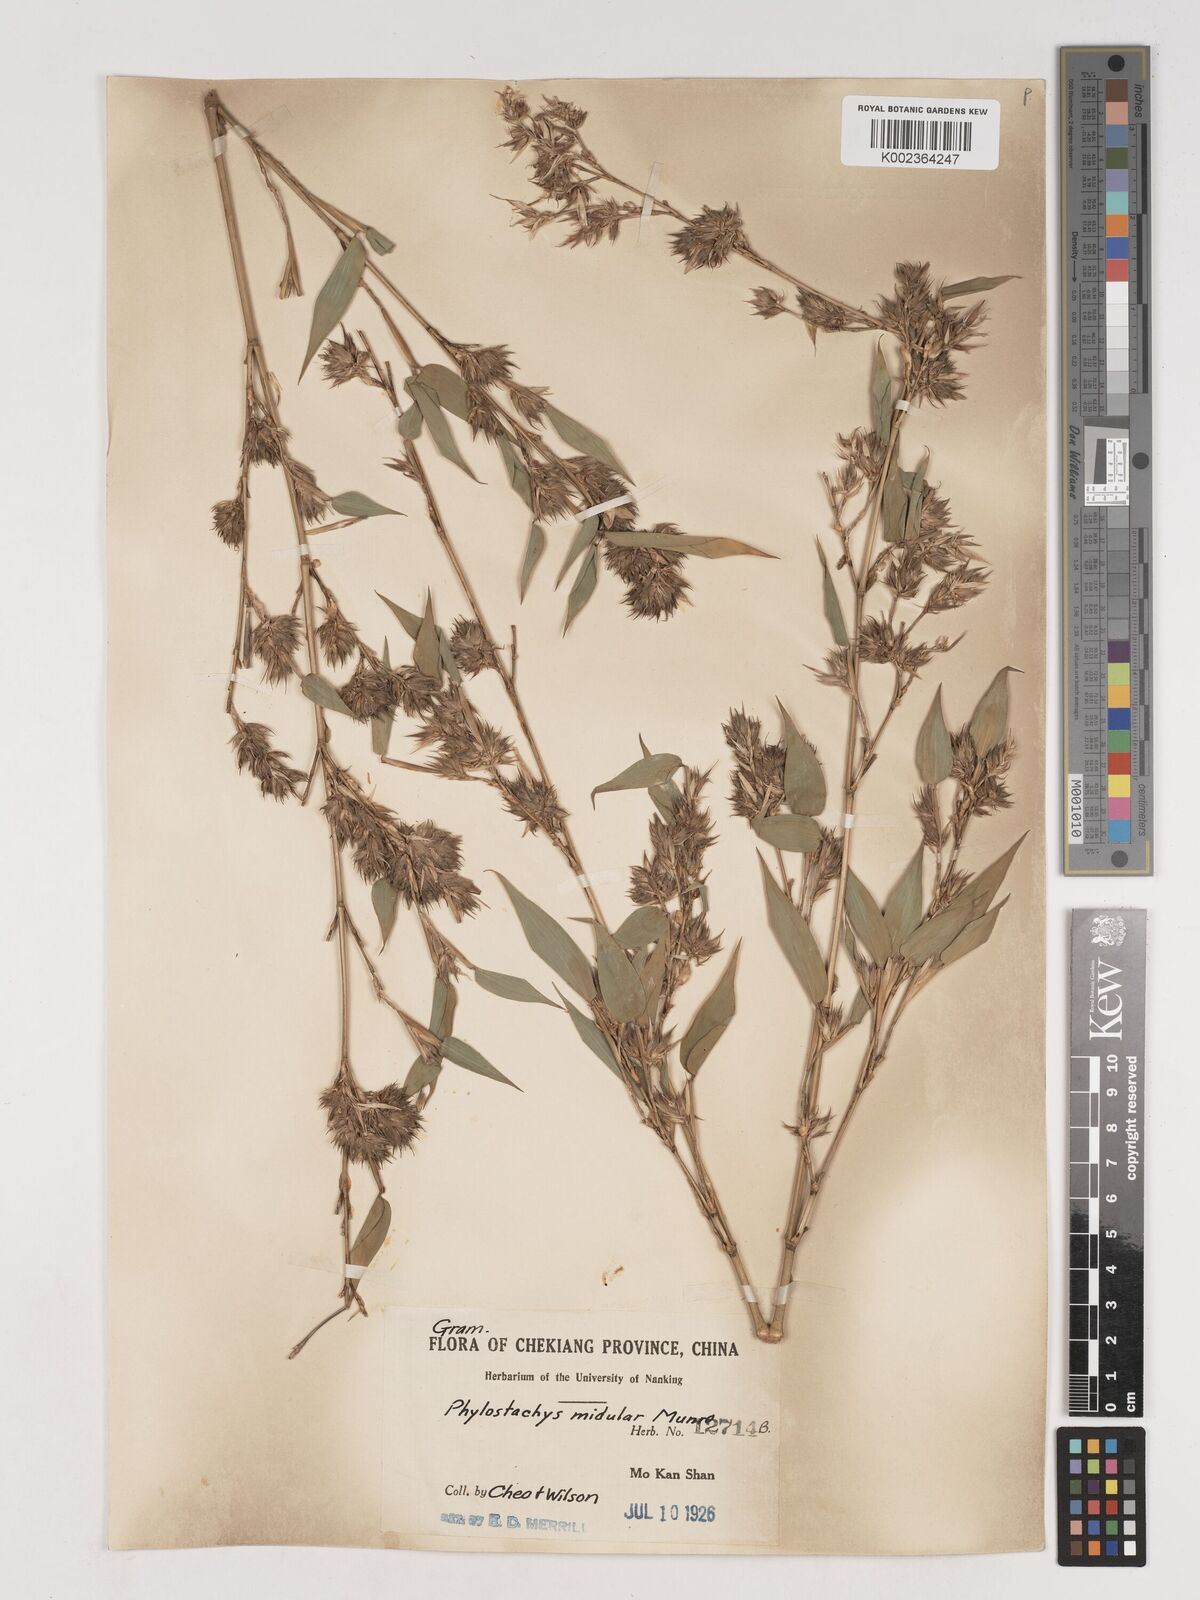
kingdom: Plantae
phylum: Tracheophyta
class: Liliopsida
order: Poales
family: Poaceae
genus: Phyllostachys
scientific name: Phyllostachys nidularia
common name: Broom bamboo
